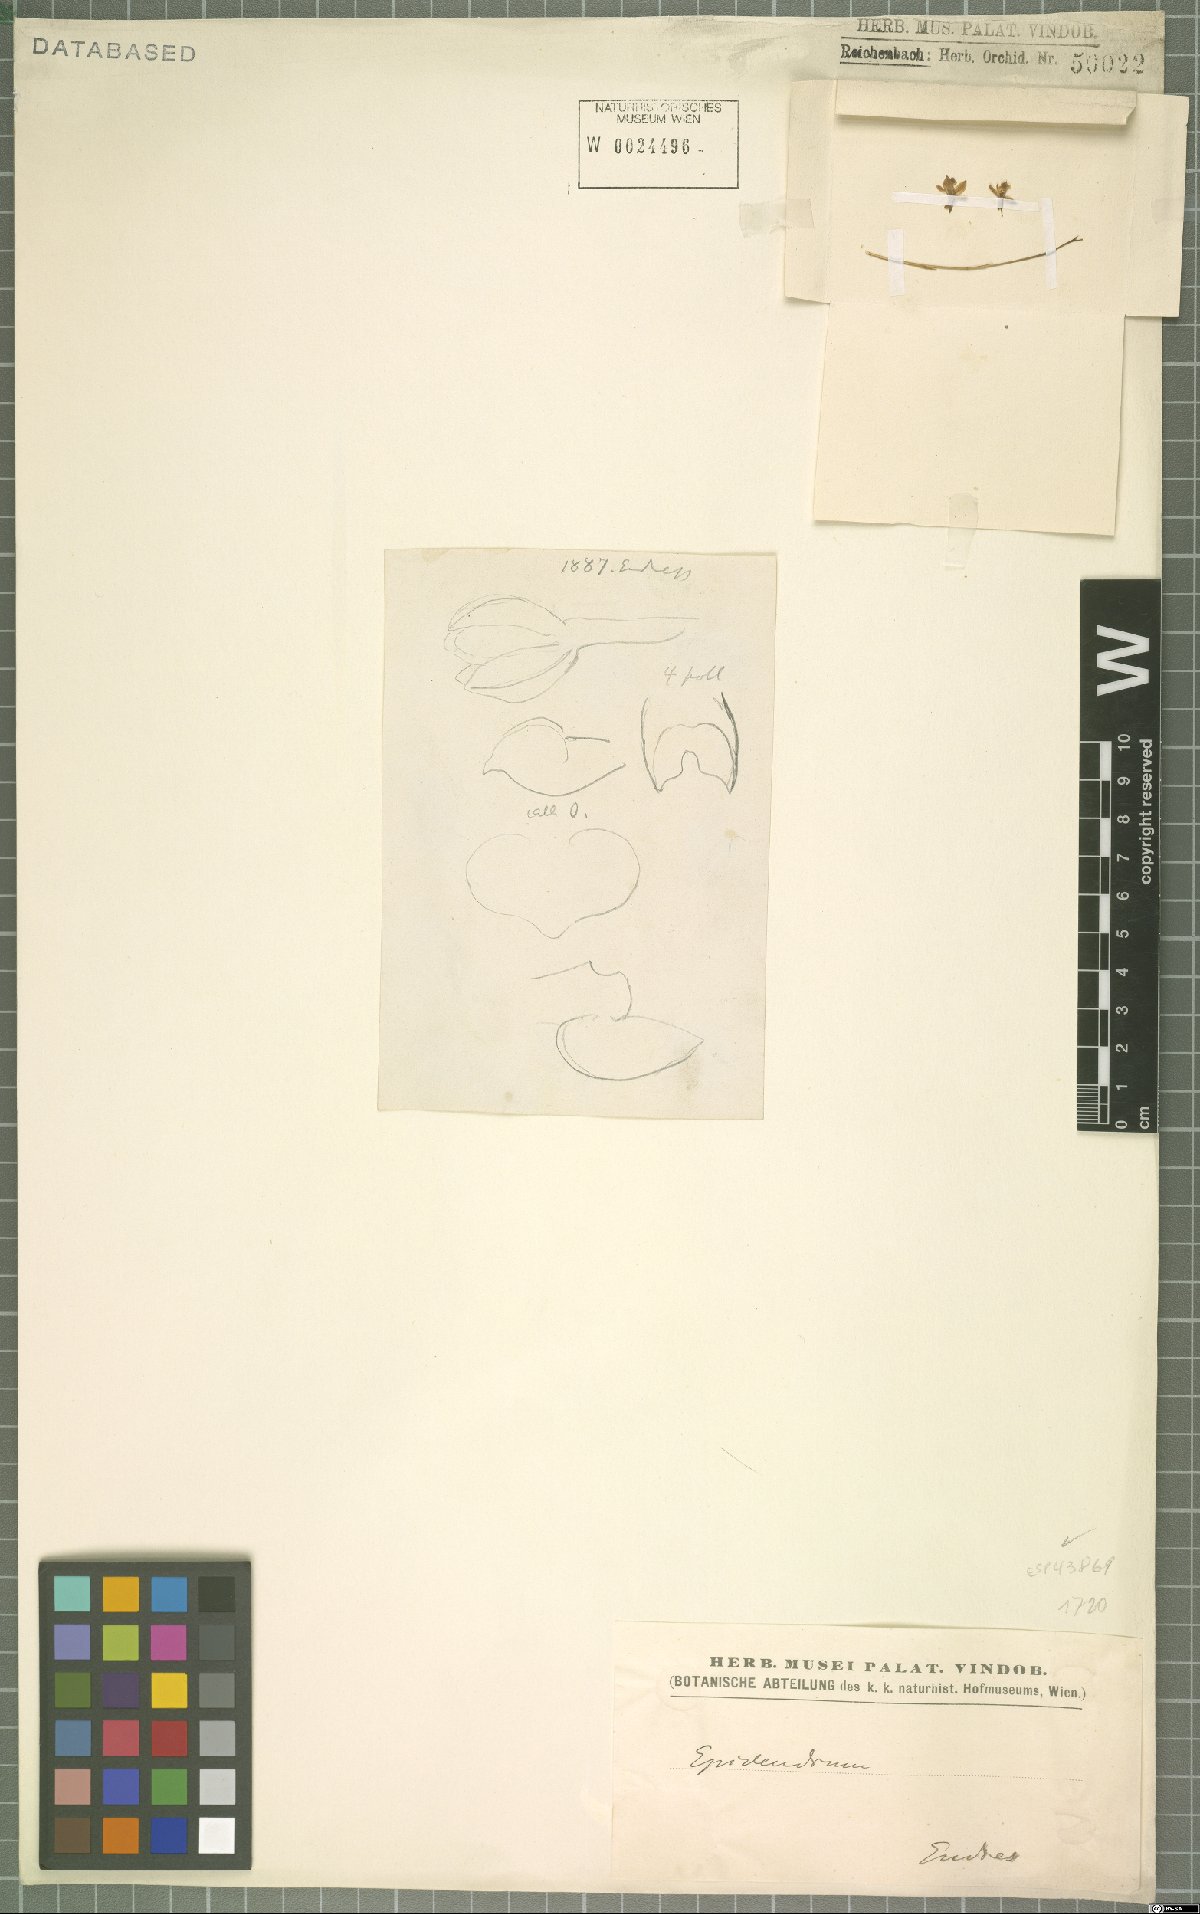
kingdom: Plantae
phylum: Tracheophyta
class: Liliopsida
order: Asparagales
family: Orchidaceae
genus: Epidendrum
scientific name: Epidendrum
